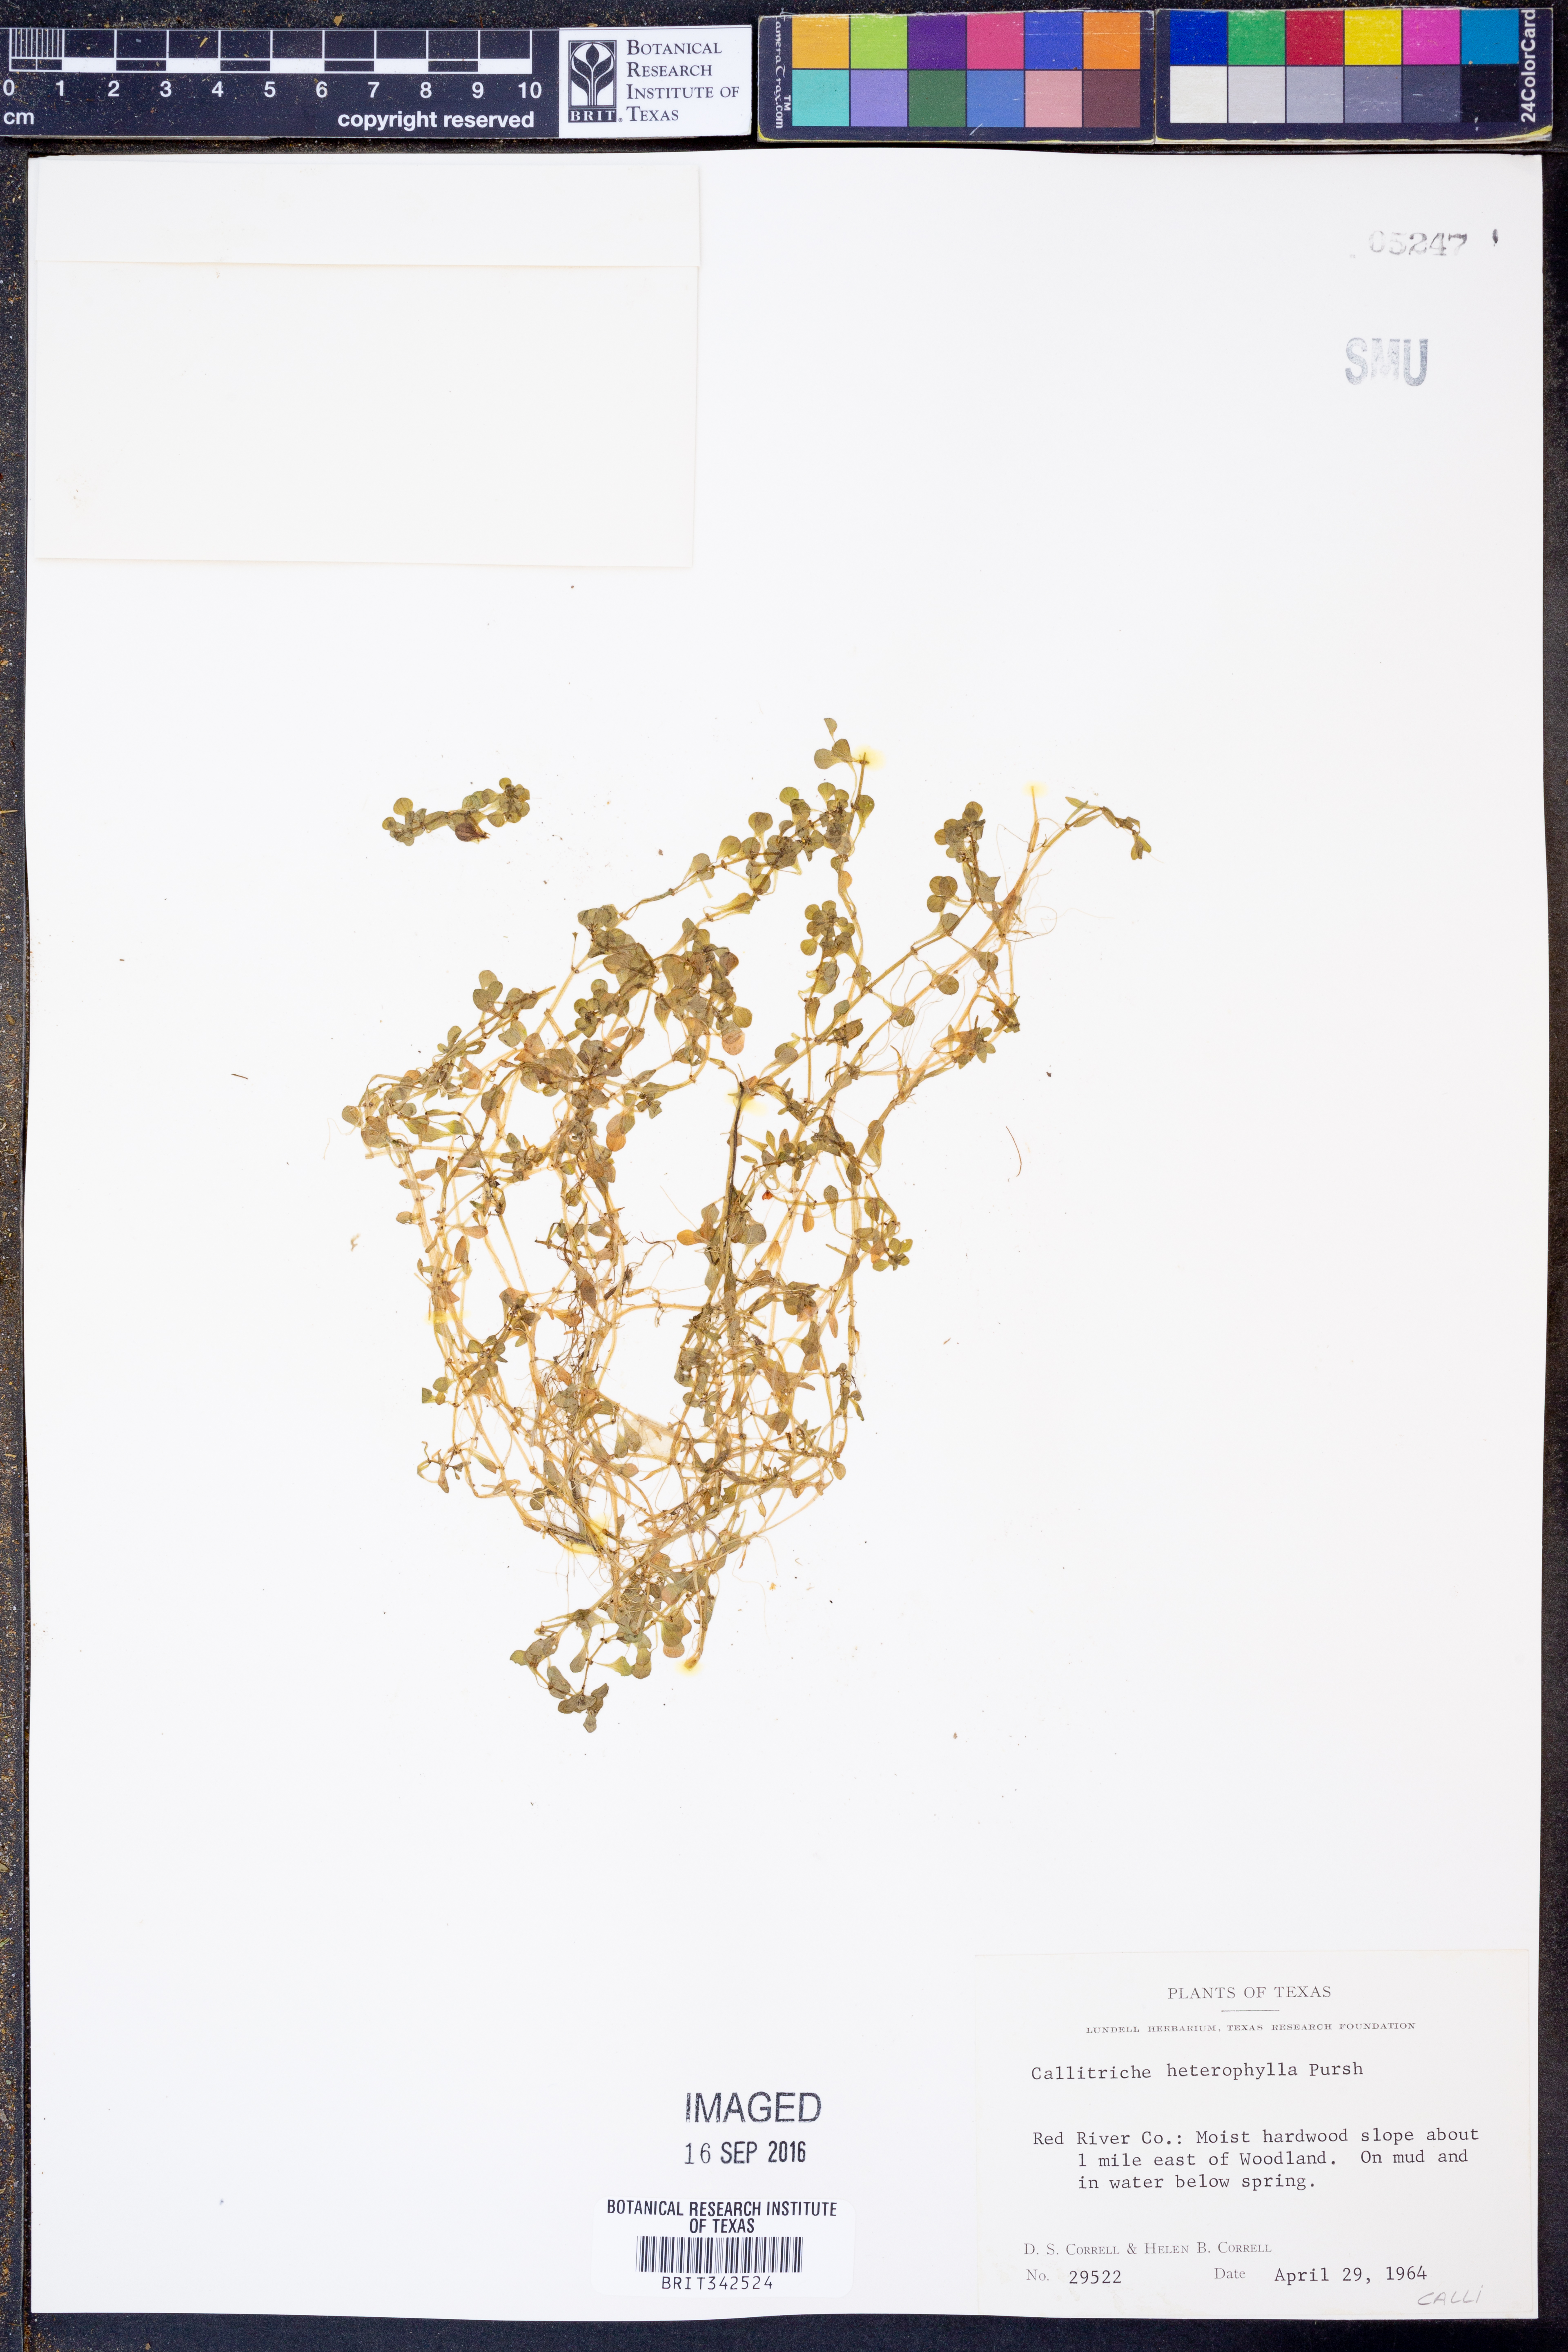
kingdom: Plantae
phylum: Tracheophyta
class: Magnoliopsida
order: Lamiales
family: Plantaginaceae
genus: Callitriche
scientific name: Callitriche heterophylla
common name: Two-headed water-starwort
